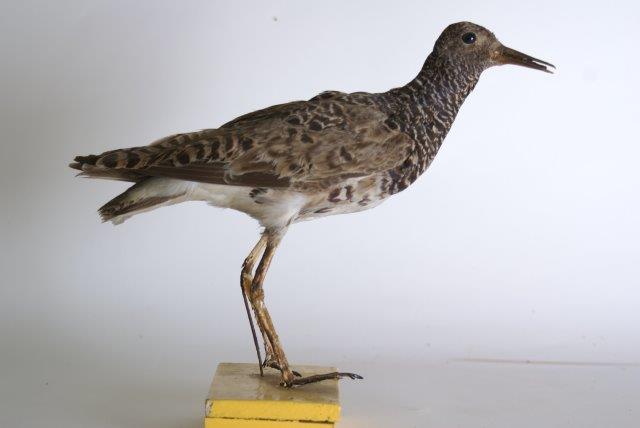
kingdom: Animalia
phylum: Chordata
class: Aves
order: Charadriiformes
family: Scolopacidae
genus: Calidris
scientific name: Calidris pugnax
